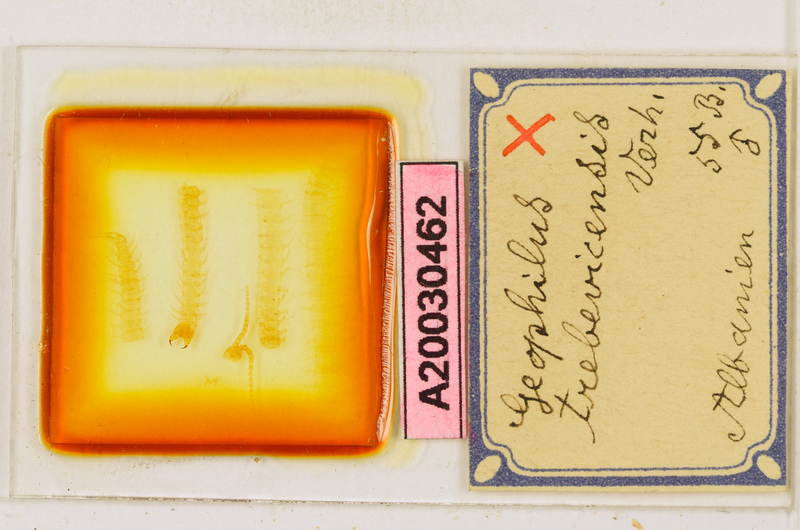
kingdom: Animalia
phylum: Arthropoda
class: Chilopoda
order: Geophilomorpha
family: Geophilidae
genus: Clinopodes
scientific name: Clinopodes trebevicensis
